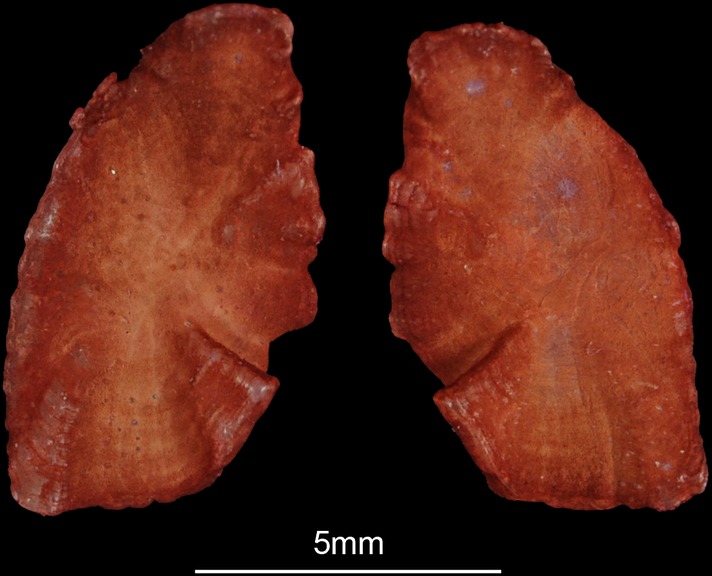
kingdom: Animalia
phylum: Chordata
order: Perciformes
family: Sparidae
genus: Diplodus
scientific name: Diplodus sargus
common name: White seabream
